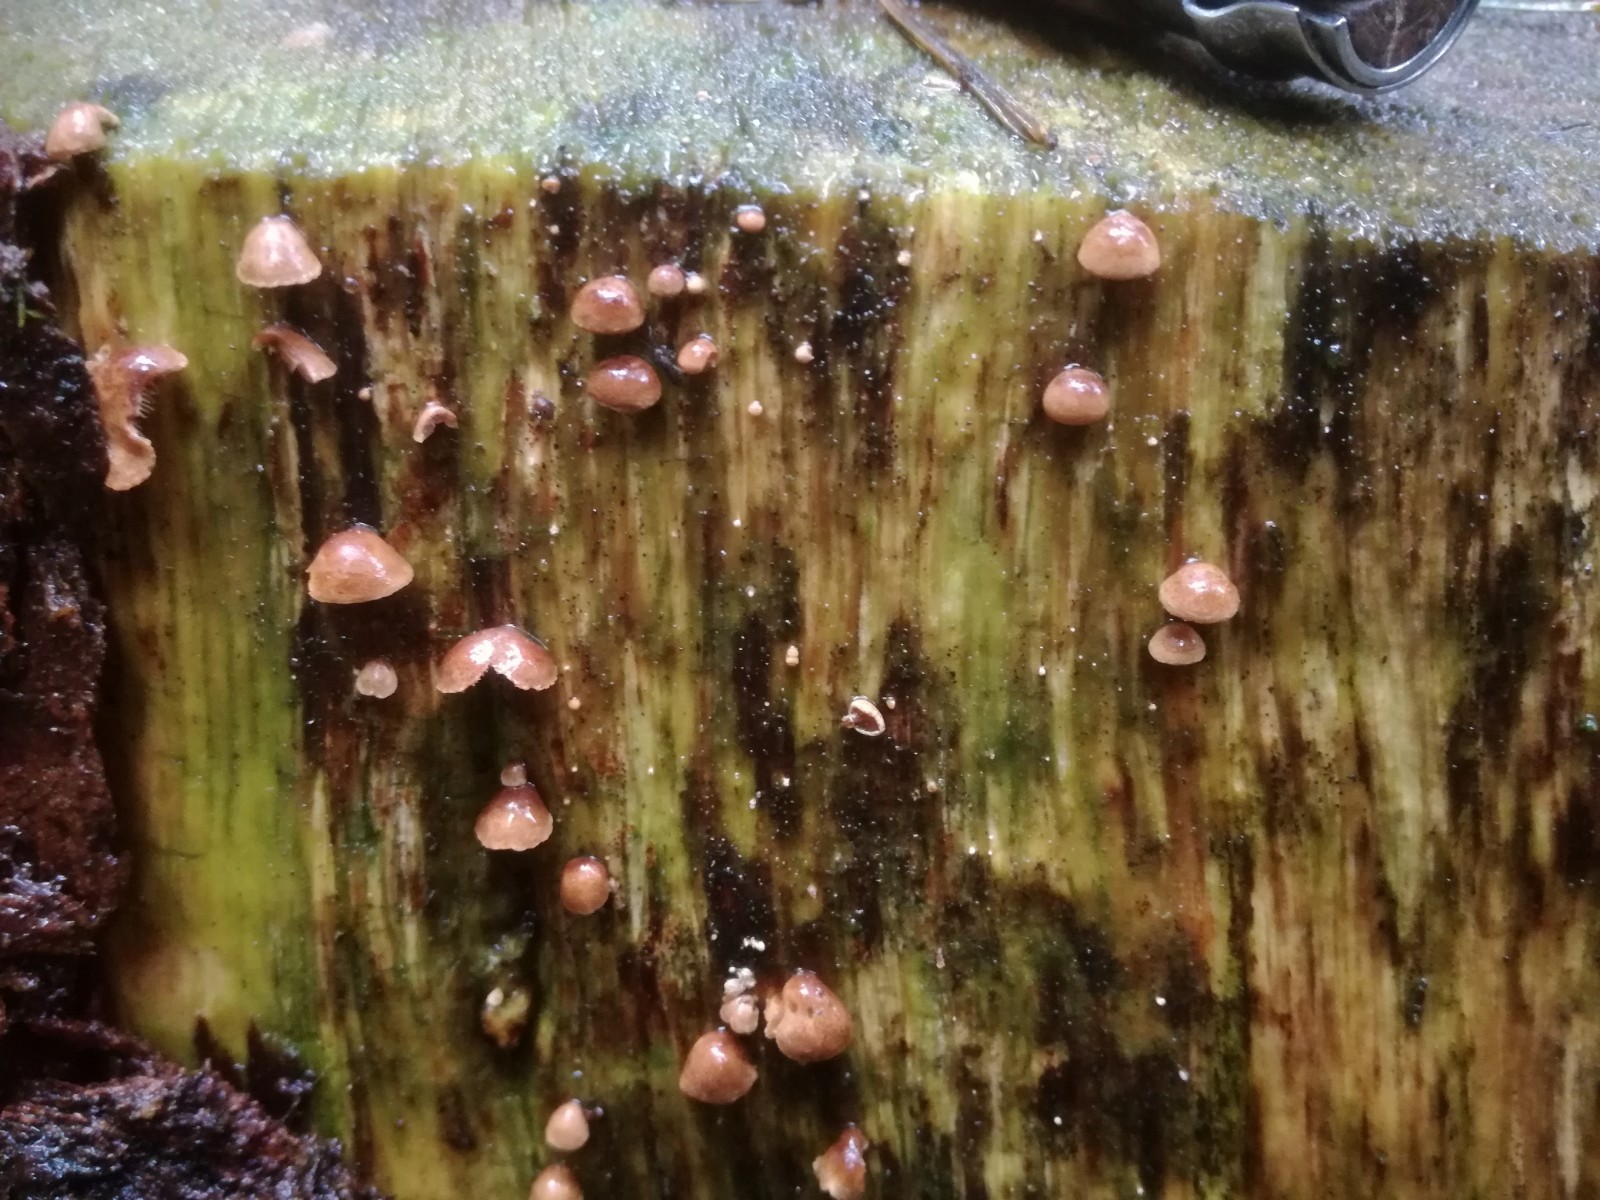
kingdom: Fungi
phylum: Basidiomycota
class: Agaricomycetes
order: Agaricales
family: Strophariaceae
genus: Deconica
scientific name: Deconica horizontalis
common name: ved-stråhat
